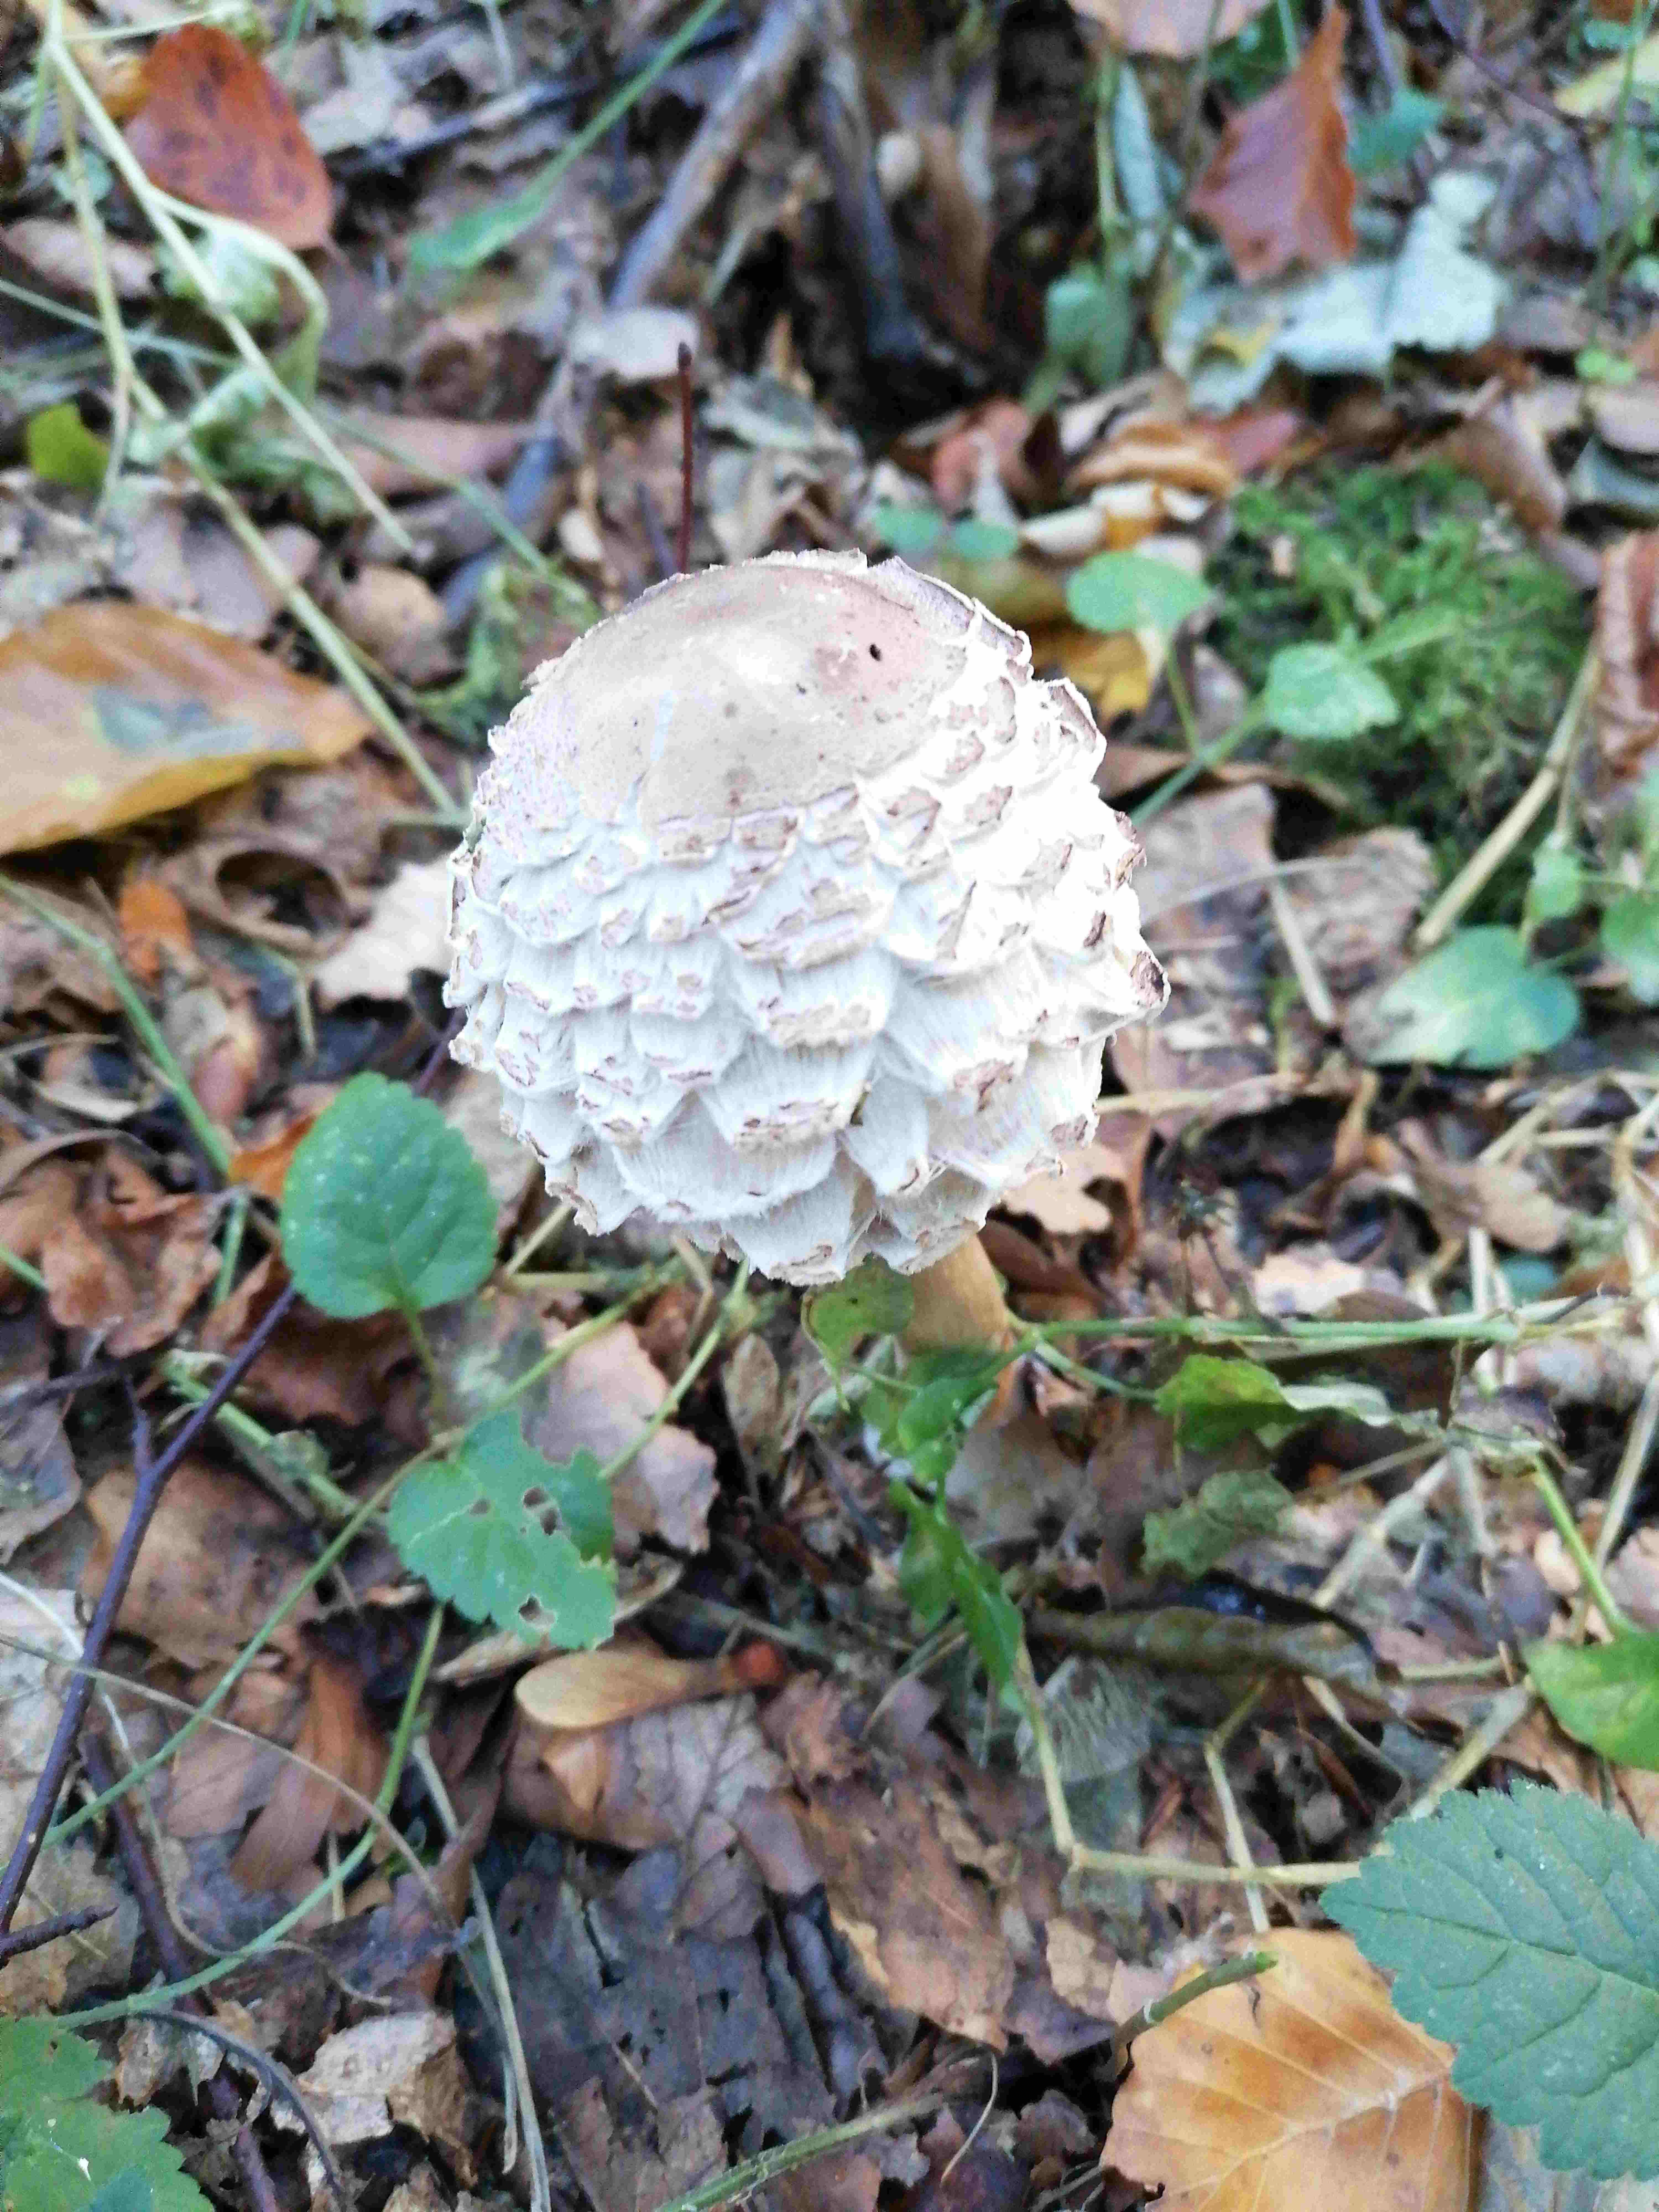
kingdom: Fungi
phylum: Basidiomycota
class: Agaricomycetes
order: Agaricales
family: Agaricaceae
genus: Chlorophyllum
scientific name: Chlorophyllum olivieri
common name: almindelig rabarberhat
